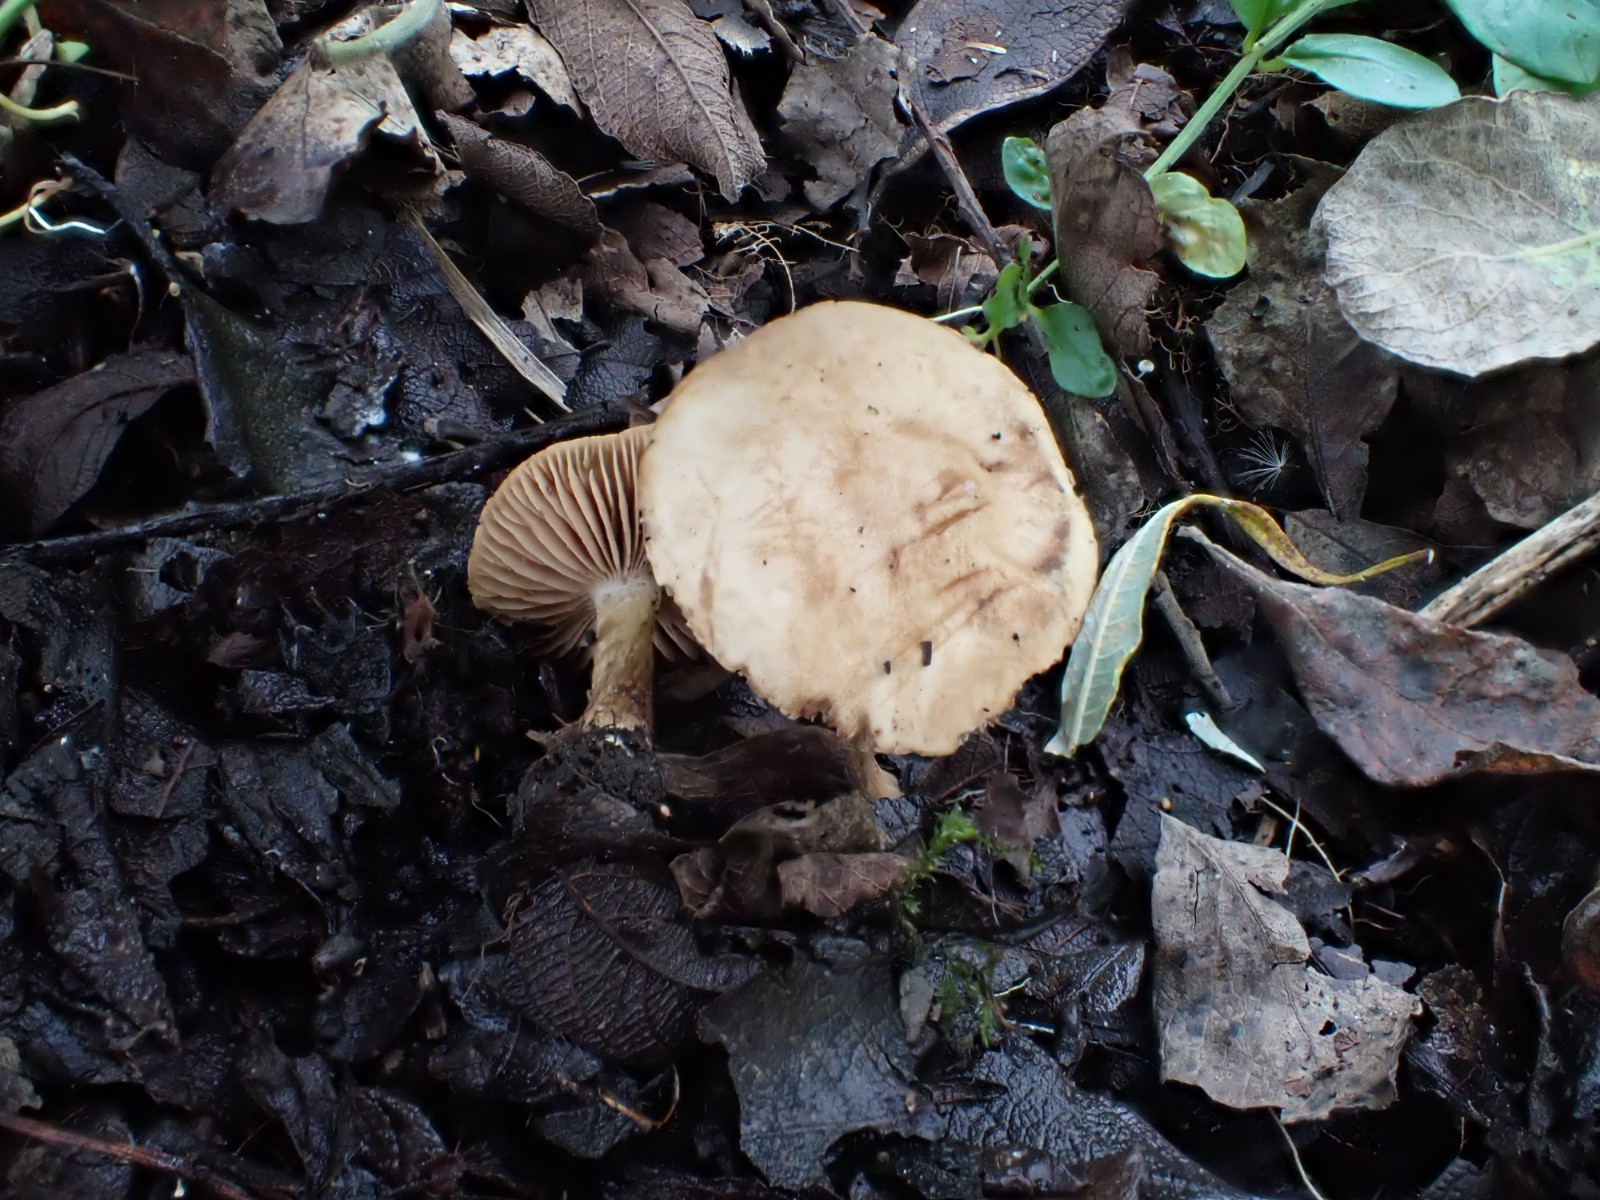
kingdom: Fungi
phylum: Basidiomycota
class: Agaricomycetes
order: Agaricales
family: Strophariaceae
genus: Pholiota
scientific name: Pholiota conissans
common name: pile-skælhat
